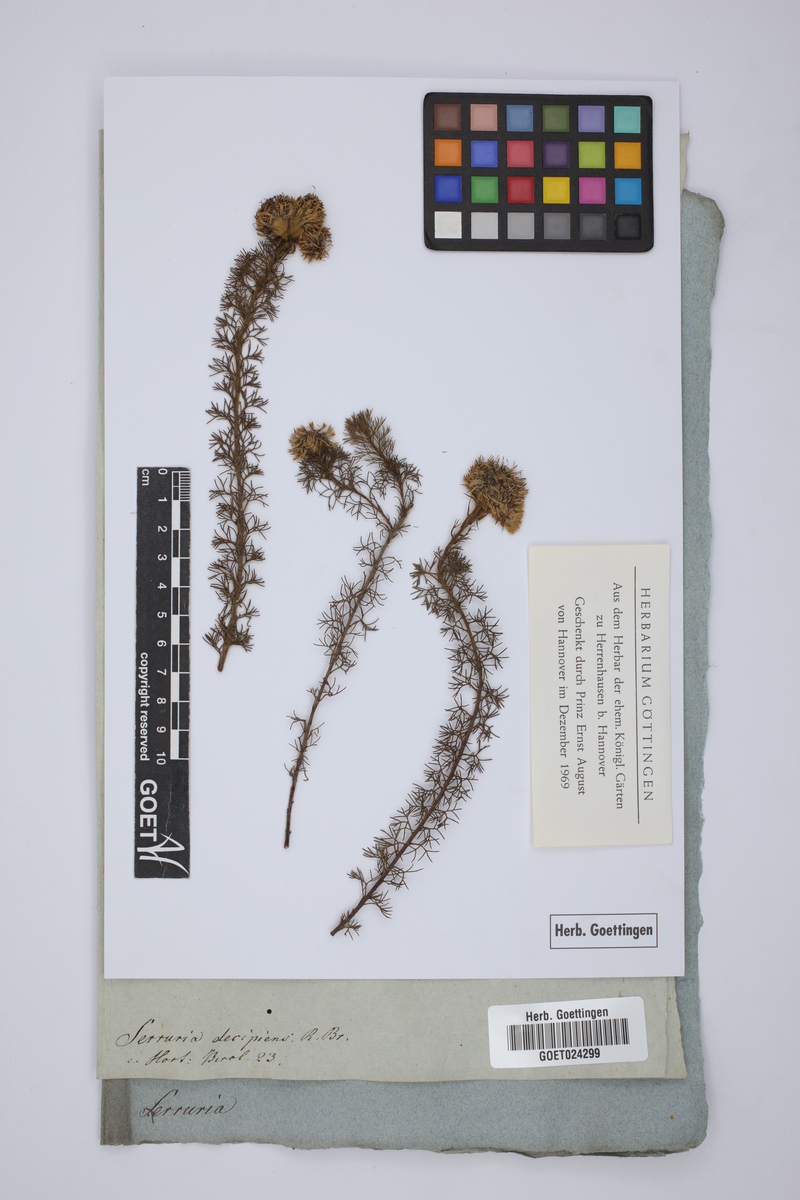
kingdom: Plantae
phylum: Tracheophyta
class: Magnoliopsida
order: Proteales
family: Proteaceae
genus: Serruria
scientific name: Serruria decipiens
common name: Sandveld spiderhead
